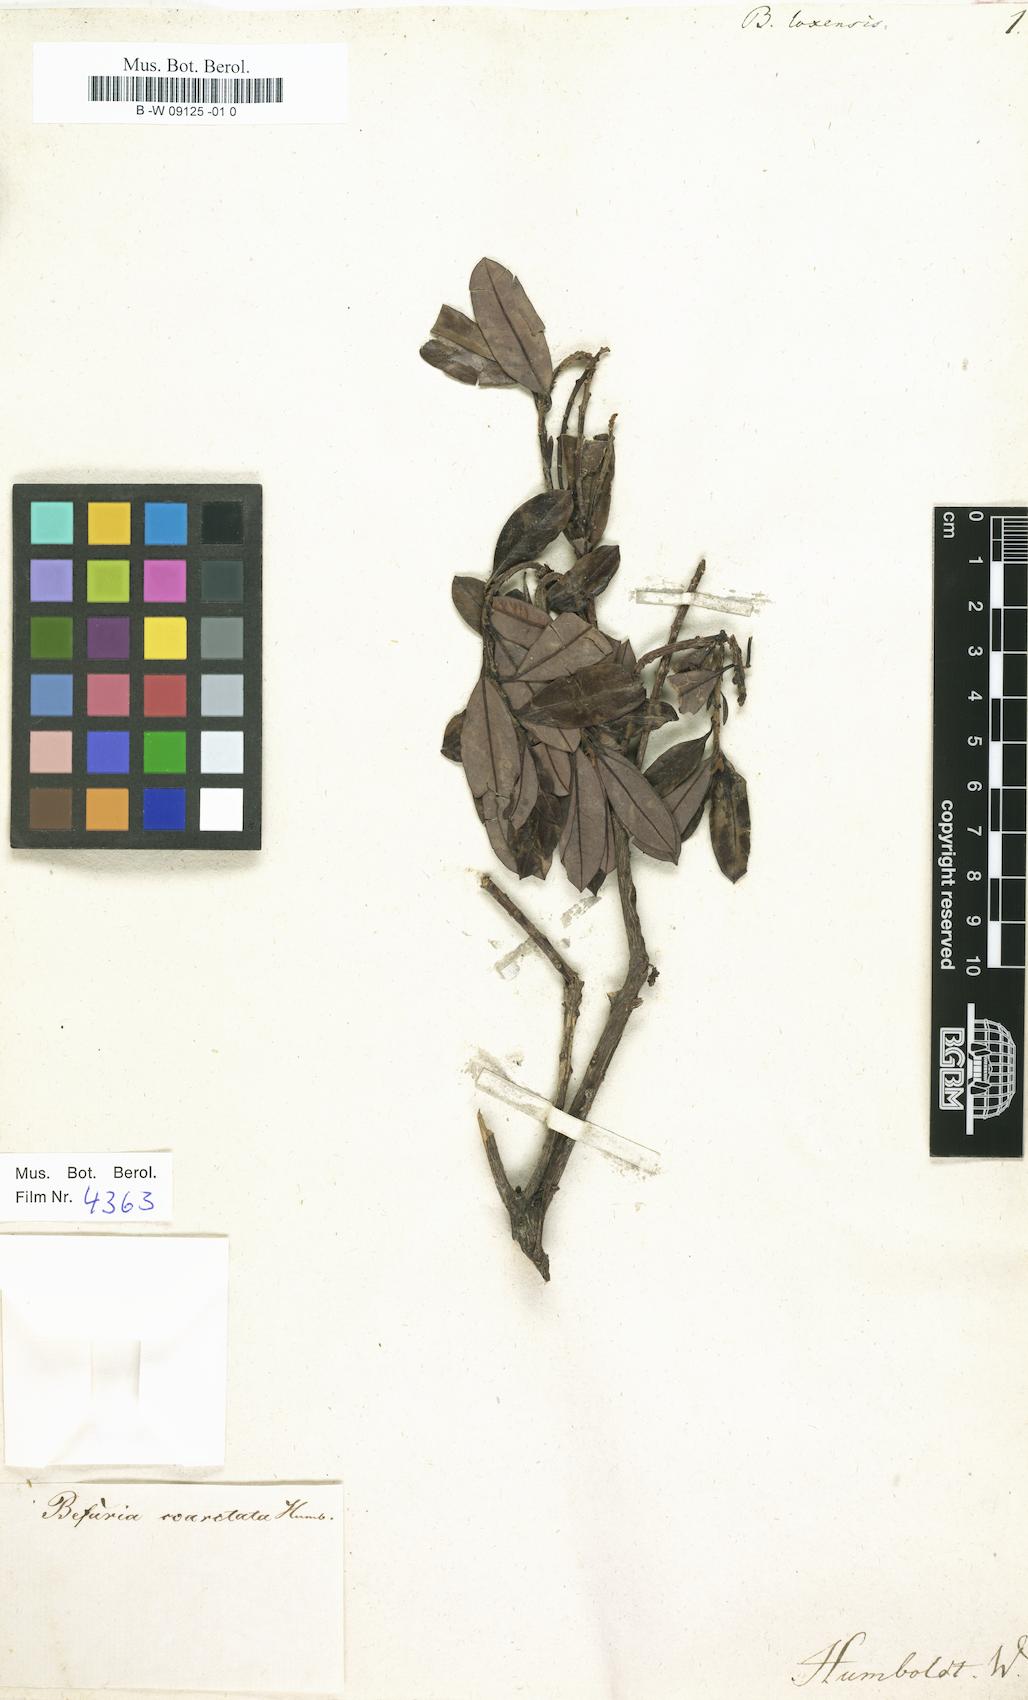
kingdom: Plantae
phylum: Tracheophyta
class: Magnoliopsida
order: Ericales
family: Ericaceae
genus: Befaria
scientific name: Befaria
